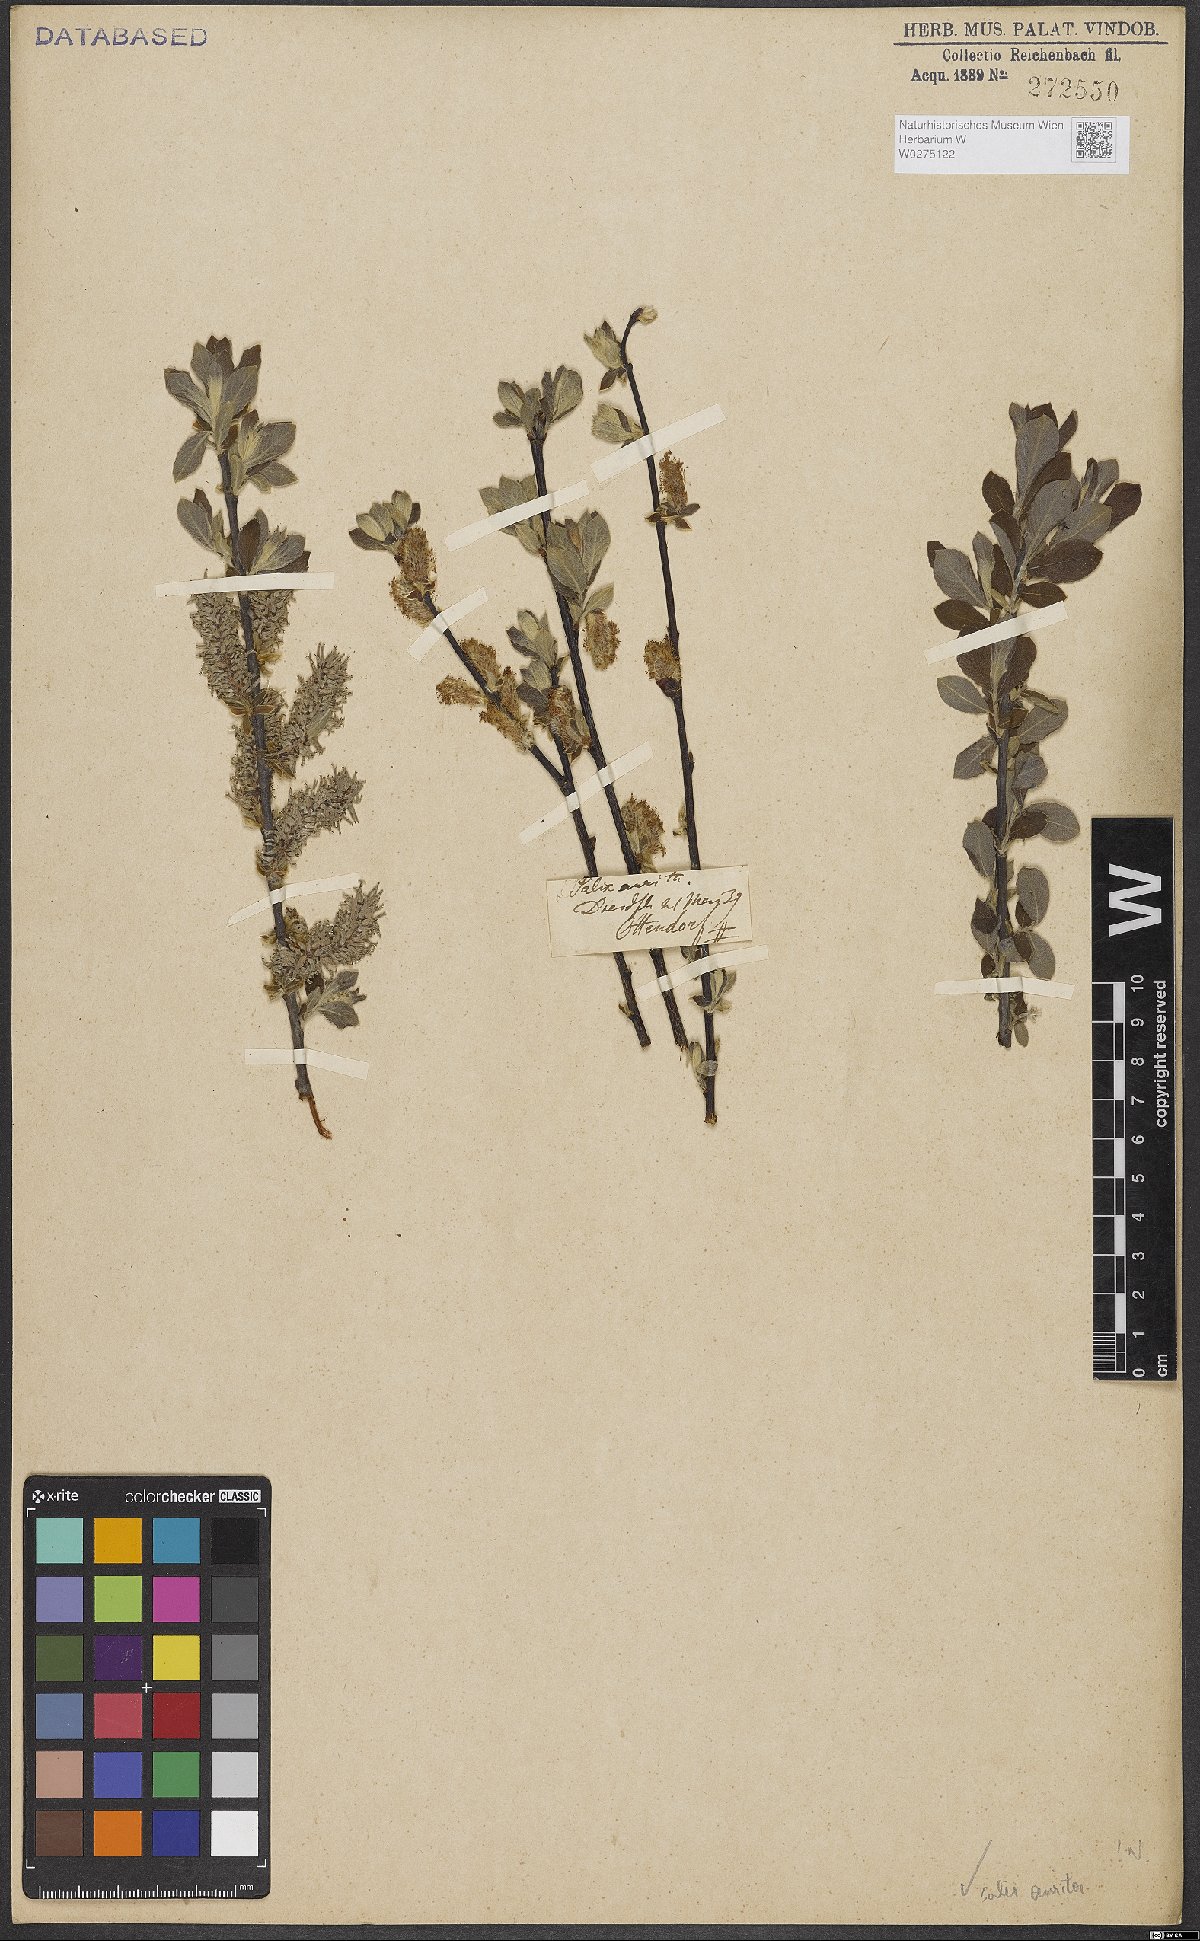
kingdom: Plantae
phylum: Tracheophyta
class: Magnoliopsida
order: Malpighiales
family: Salicaceae
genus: Salix
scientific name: Salix aurita
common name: Eared willow
